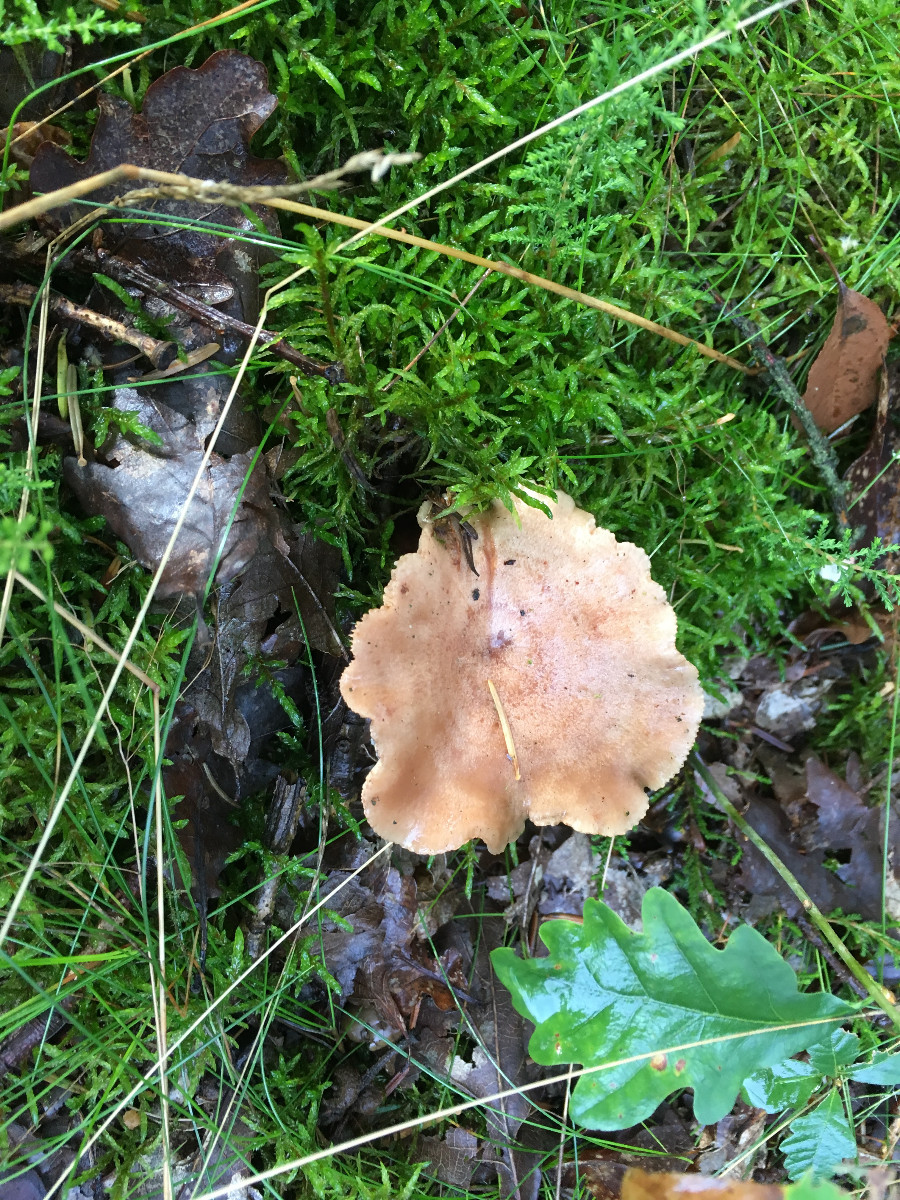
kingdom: Fungi
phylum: Basidiomycota
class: Agaricomycetes
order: Russulales
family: Russulaceae
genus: Lactarius
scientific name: Lactarius quietus
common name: ege-mælkehat
